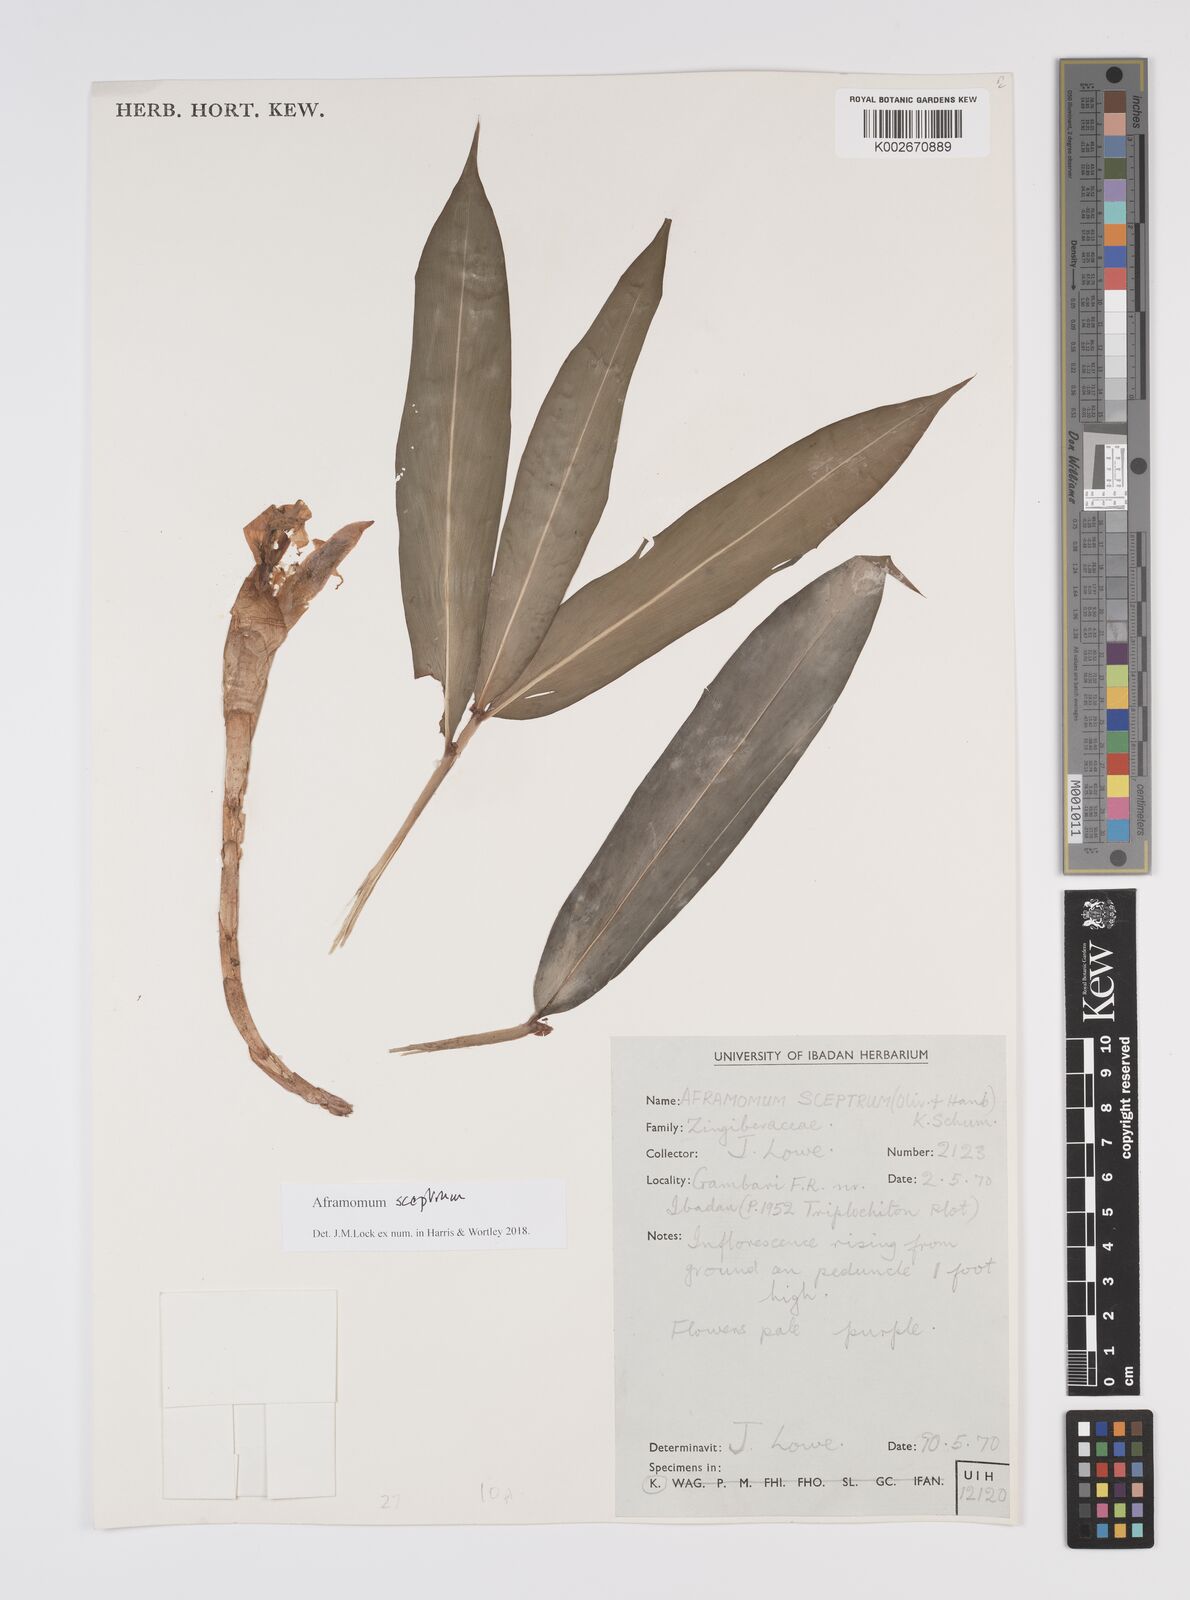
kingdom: Plantae
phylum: Tracheophyta
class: Liliopsida
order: Zingiberales
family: Zingiberaceae
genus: Aframomum
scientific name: Aframomum cereum
